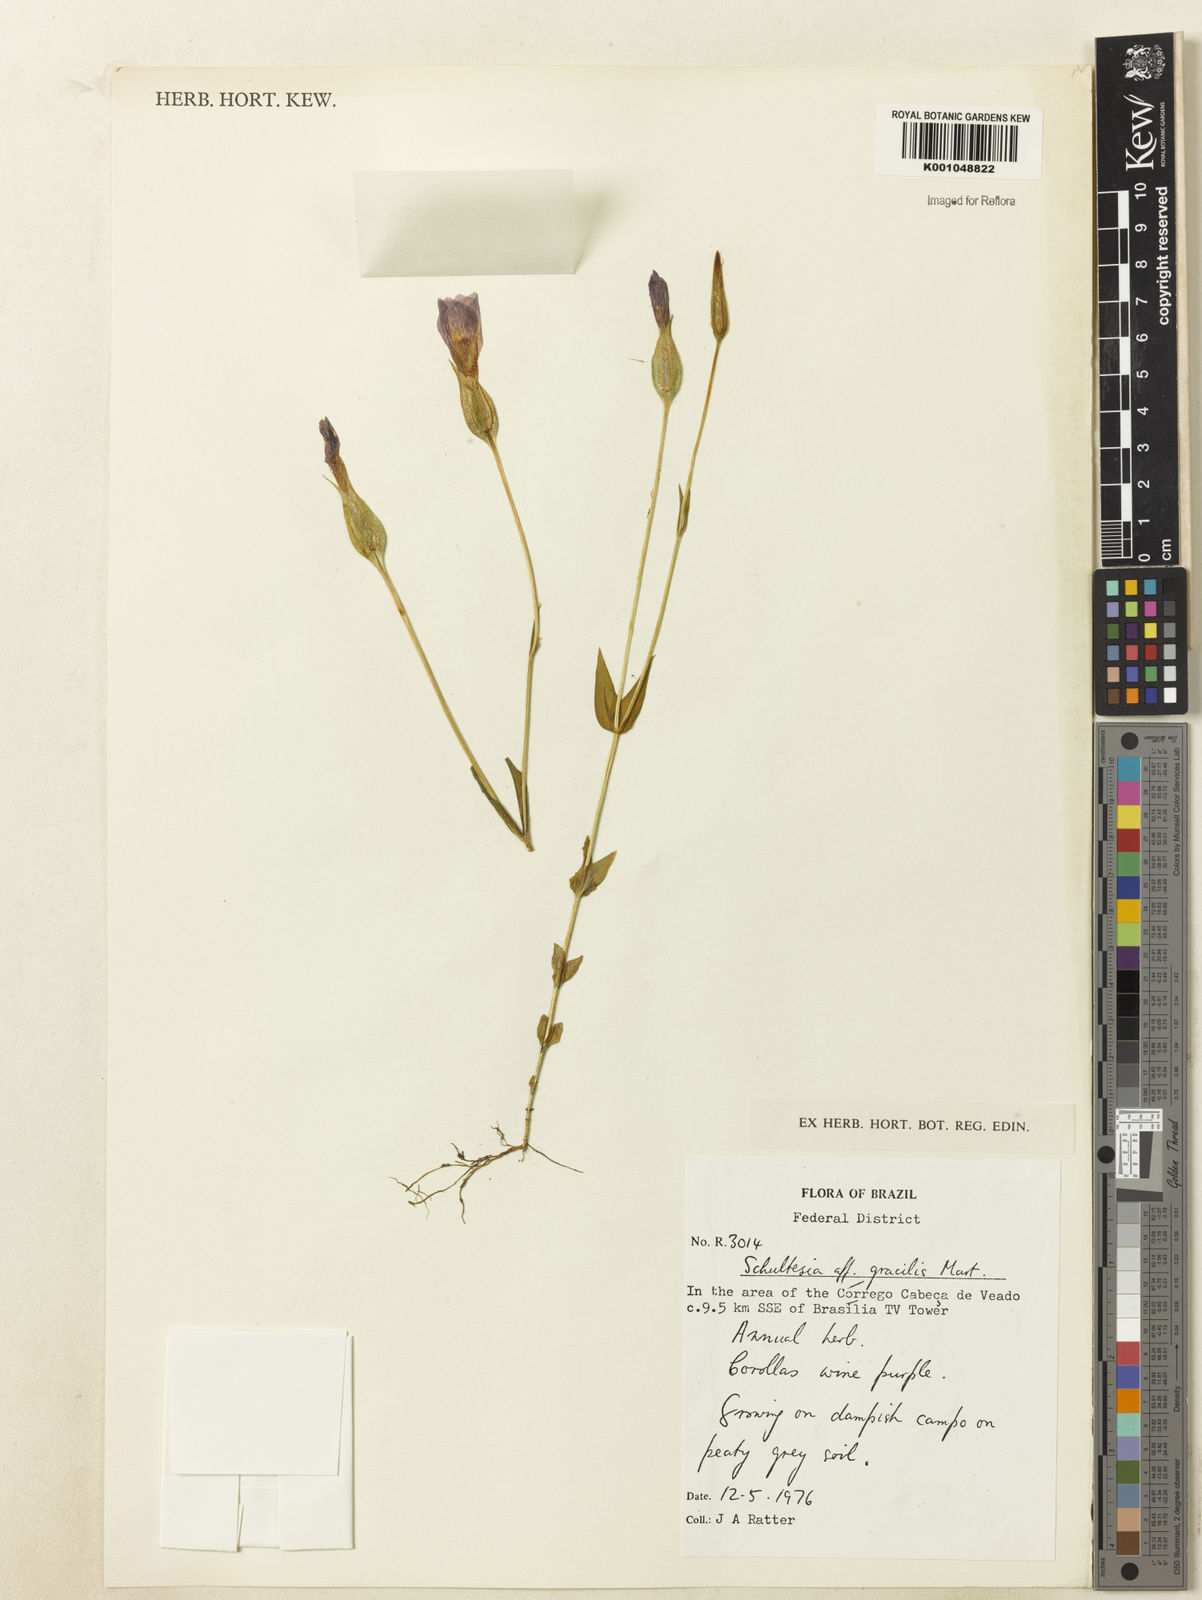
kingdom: Plantae
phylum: Tracheophyta
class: Magnoliopsida
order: Gentianales
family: Gentianaceae
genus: Schultesia
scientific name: Schultesia gracilis
